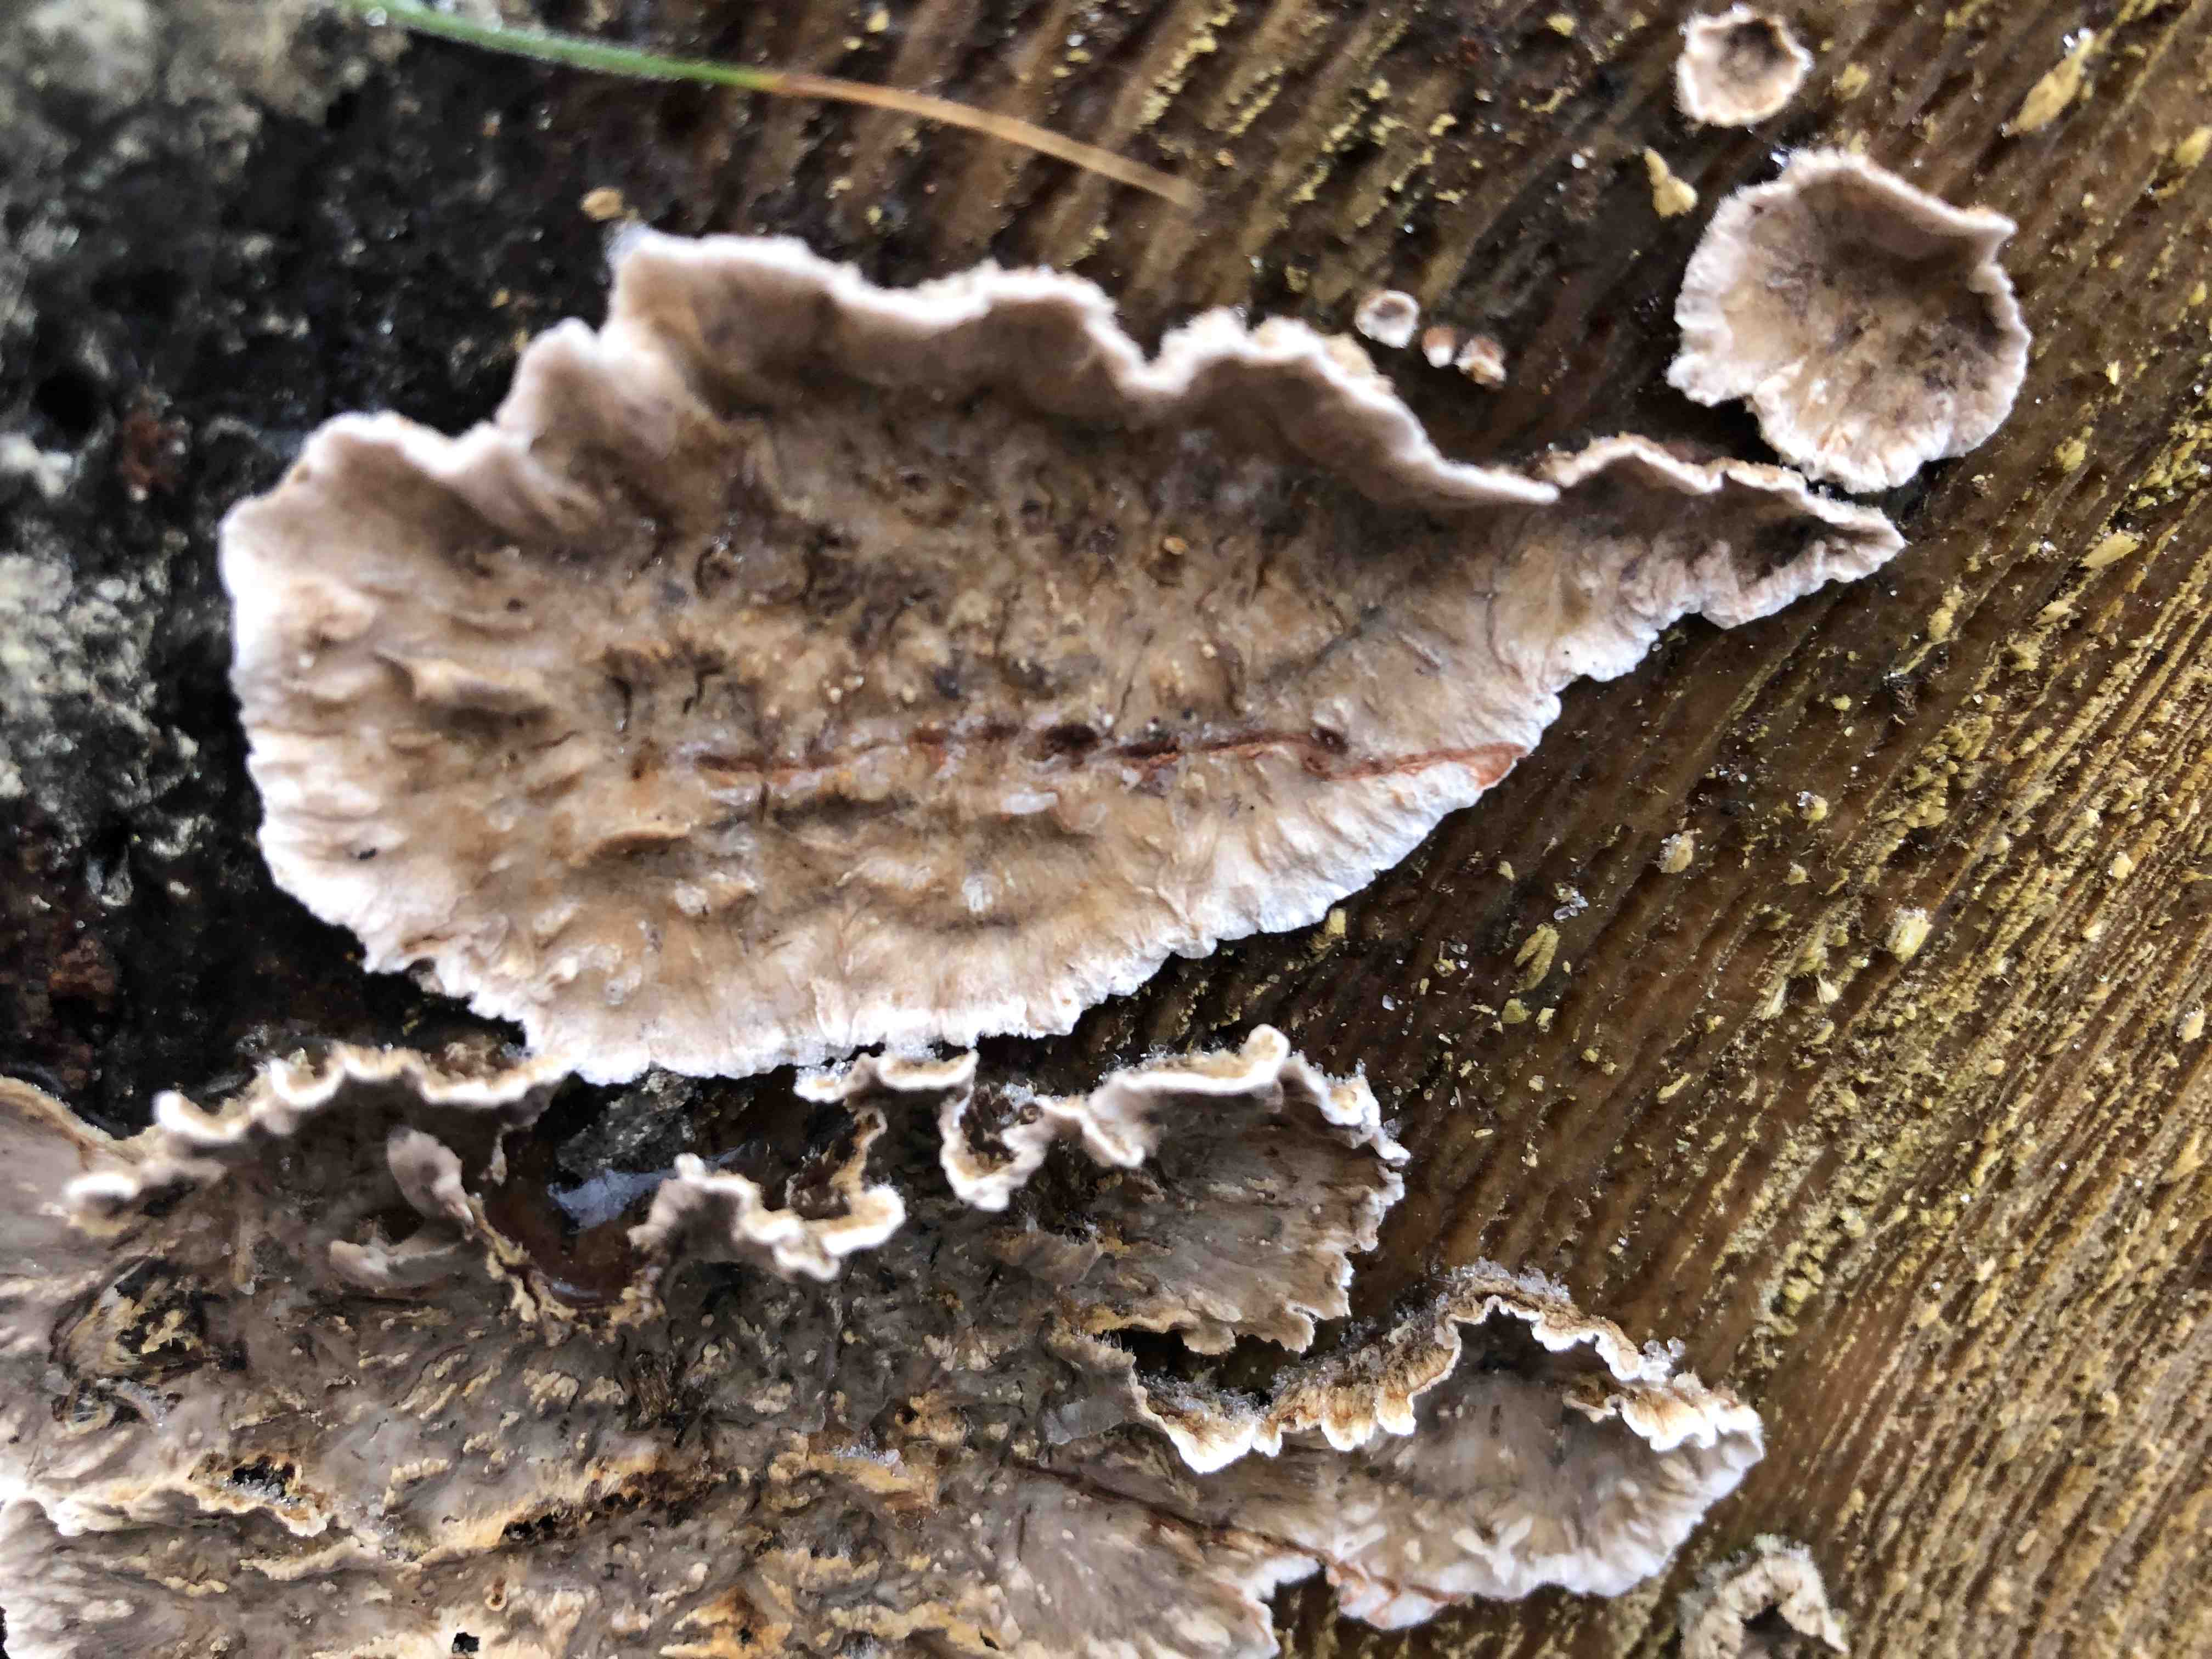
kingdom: Fungi
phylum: Basidiomycota
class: Agaricomycetes
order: Russulales
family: Stereaceae
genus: Stereum
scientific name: Stereum sanguinolentum
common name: blødende lædersvamp
